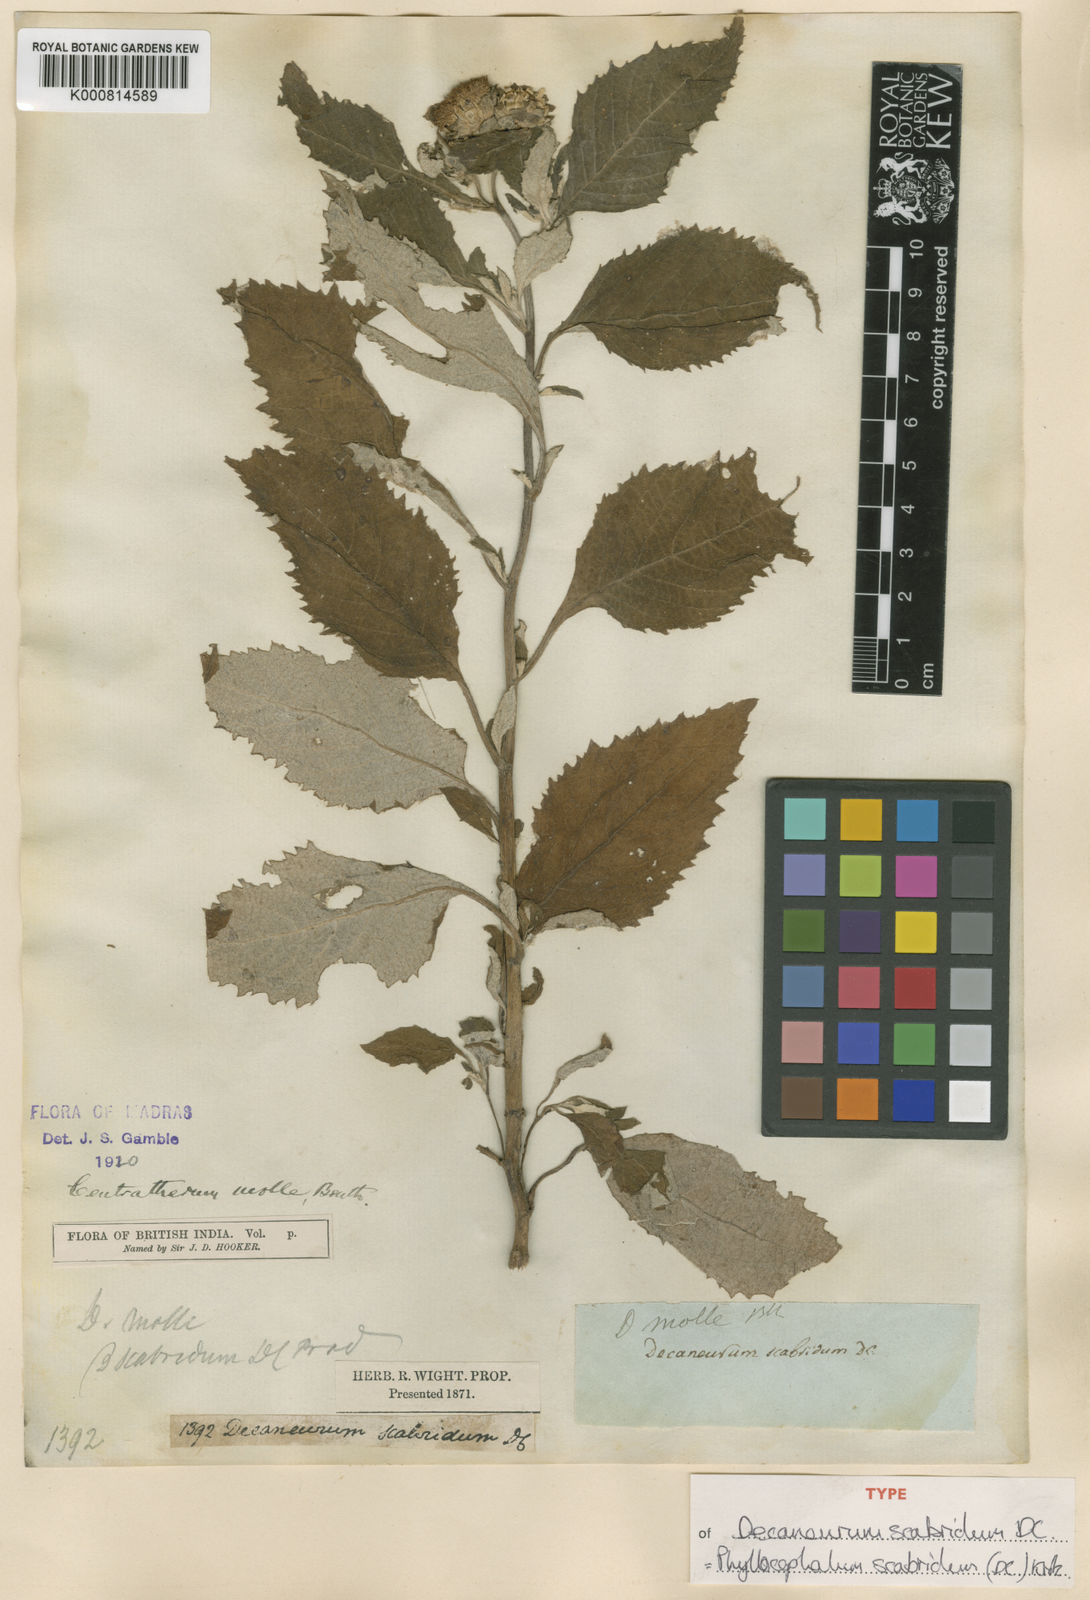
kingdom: Plantae
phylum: Tracheophyta
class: Magnoliopsida
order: Asterales
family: Asteraceae
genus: Phyllocephalum
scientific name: Phyllocephalum scabridum
